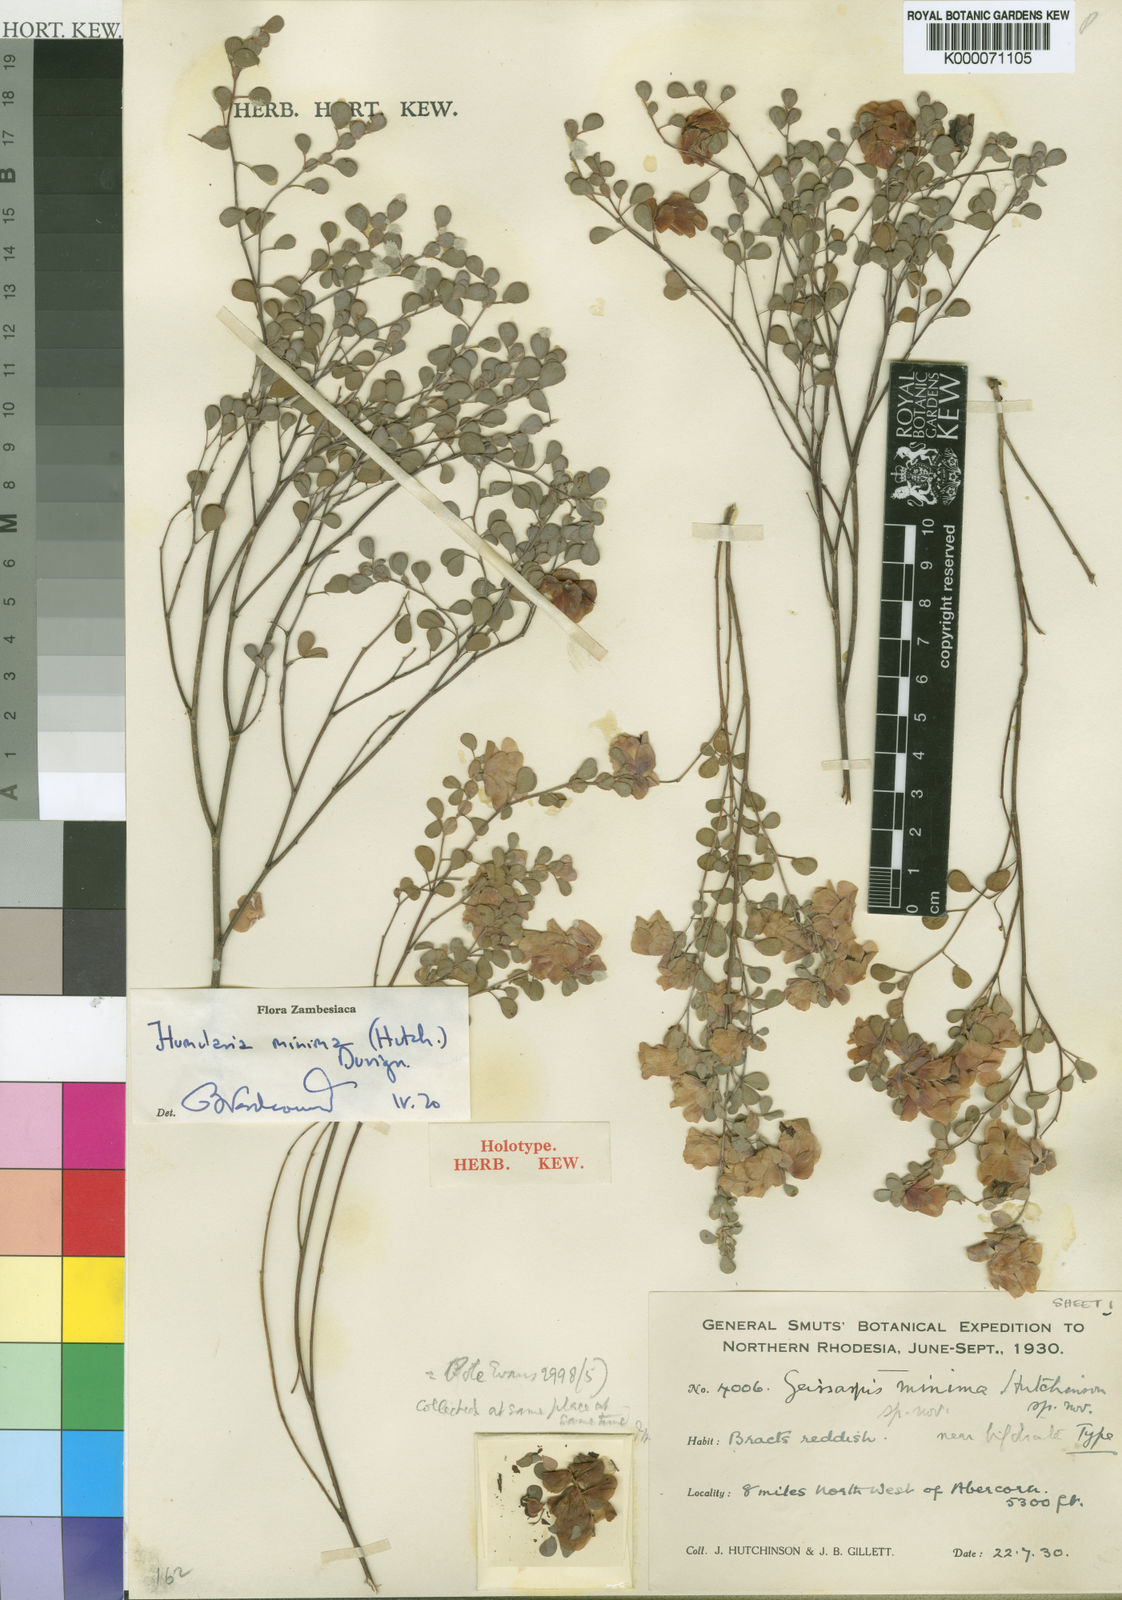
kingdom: Plantae
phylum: Tracheophyta
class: Magnoliopsida
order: Fabales
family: Fabaceae
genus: Humularia
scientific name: Humularia minima
